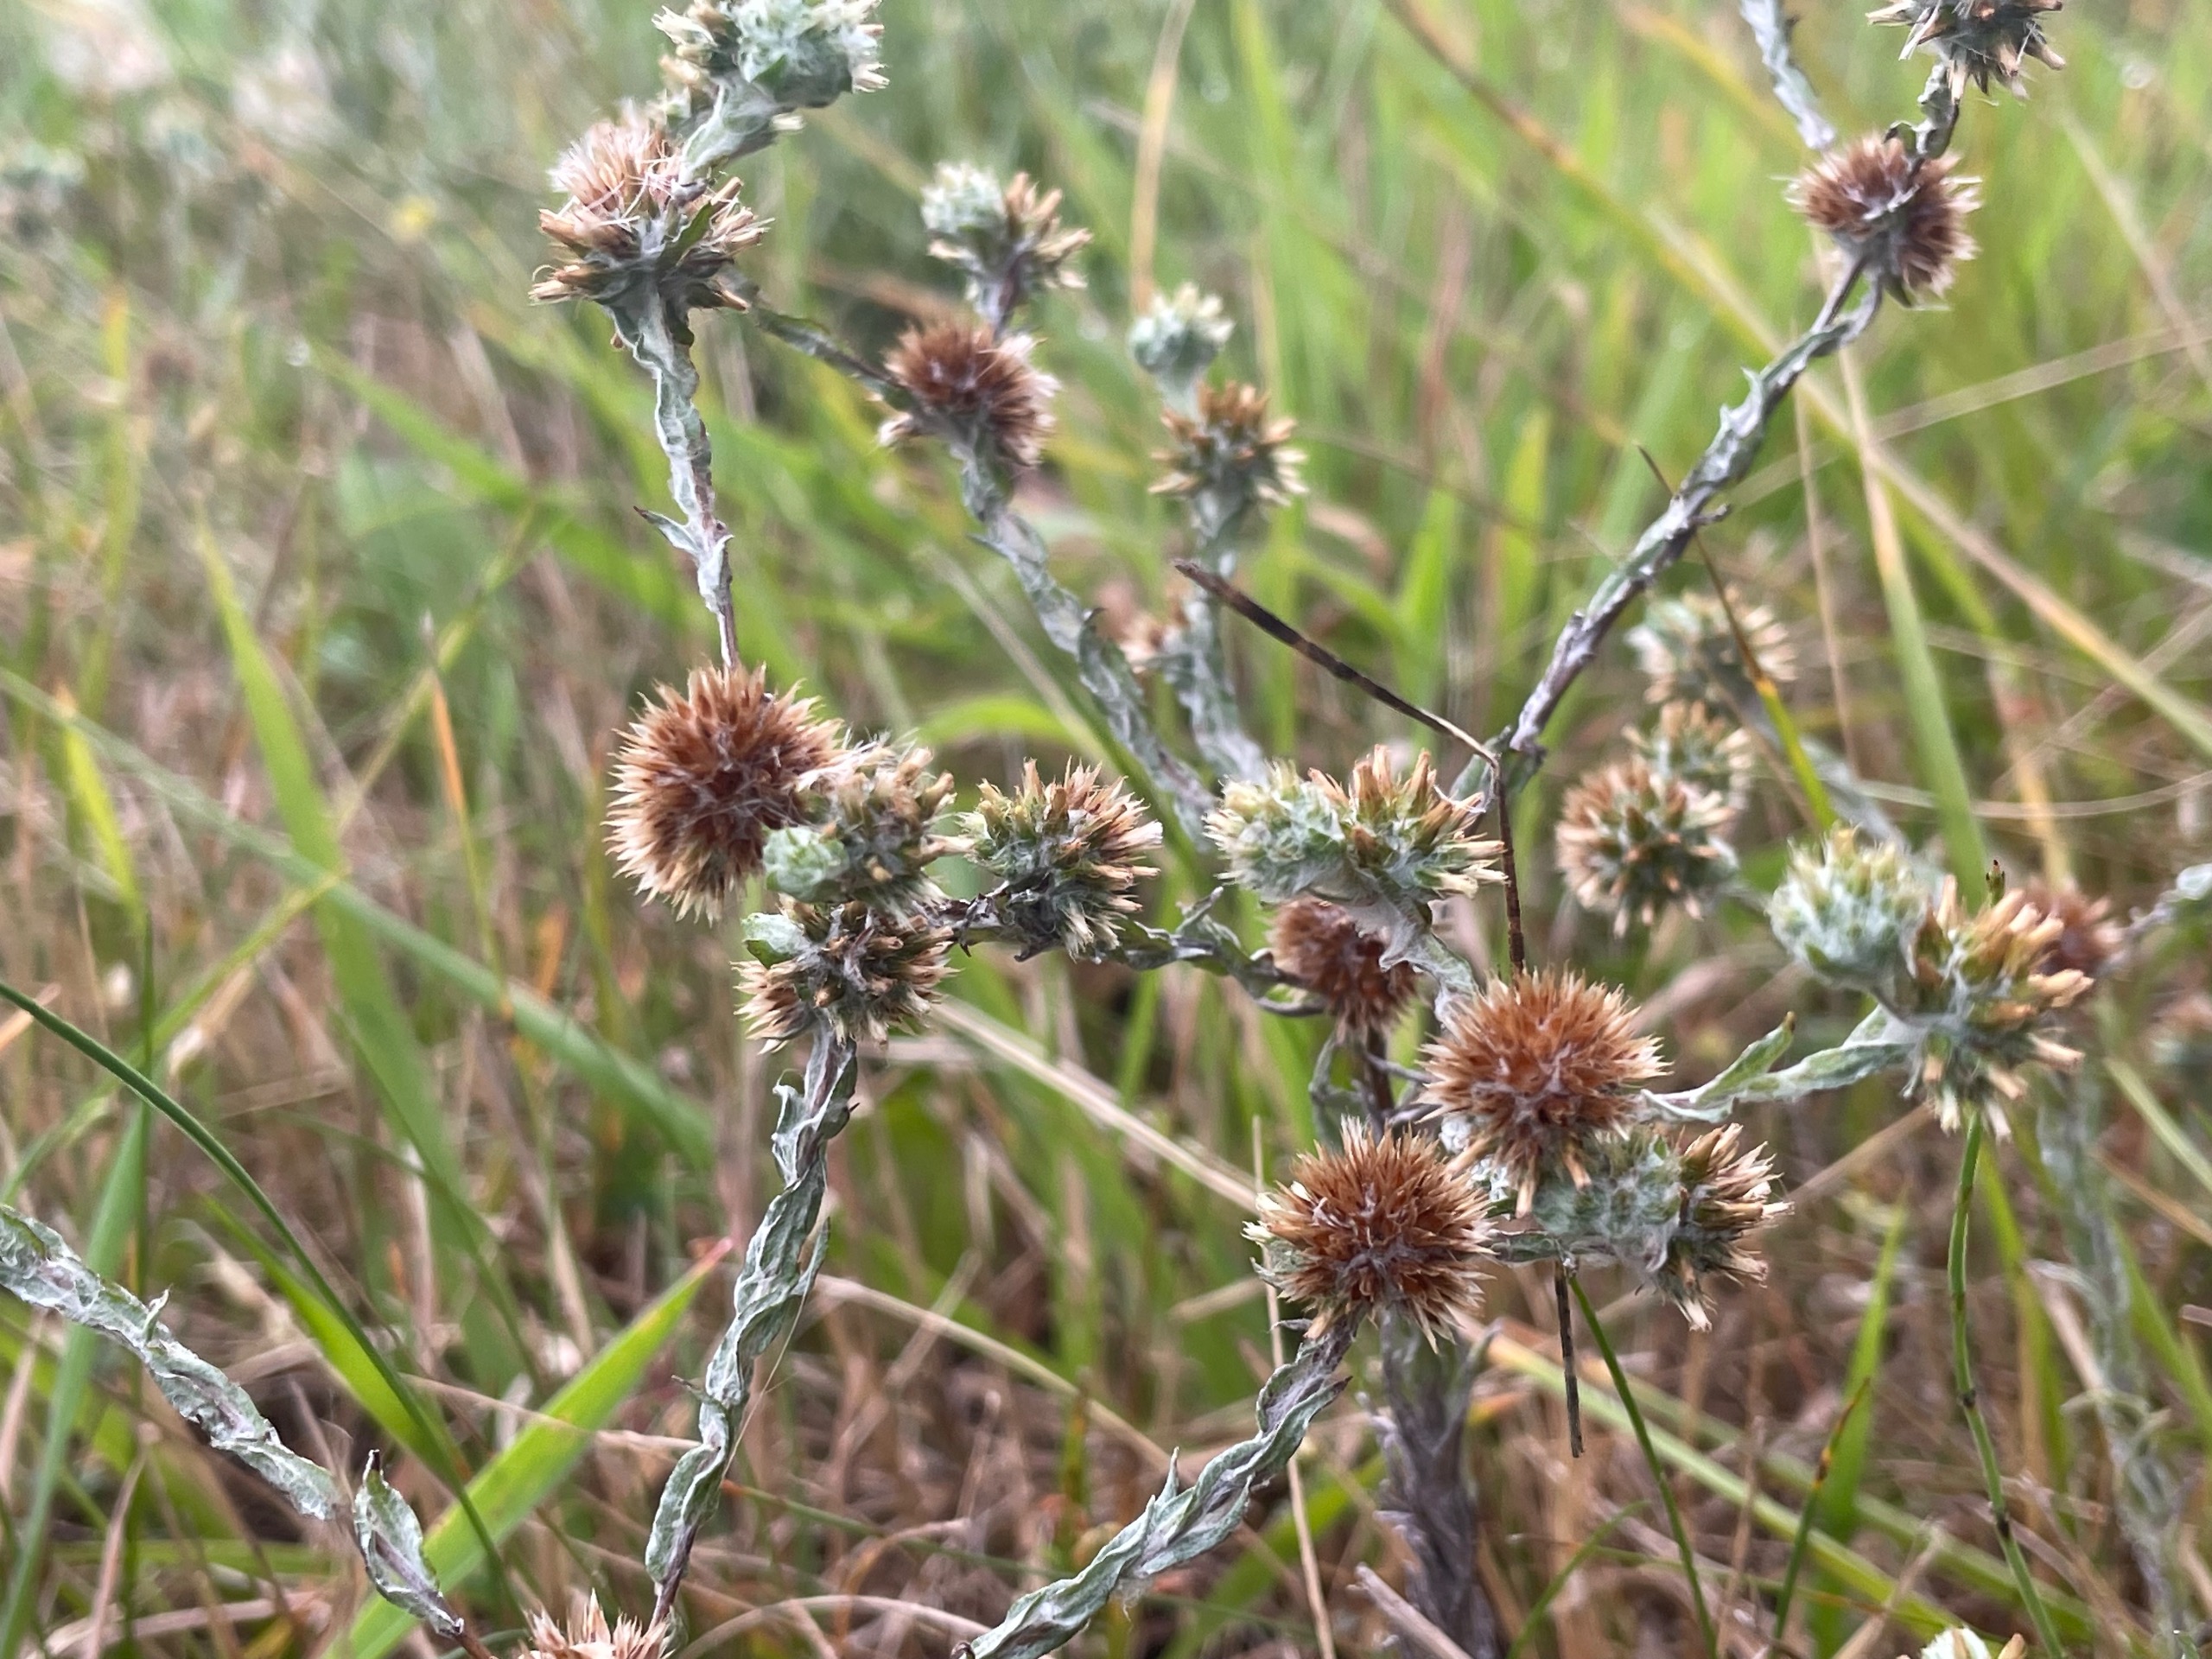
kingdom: Plantae
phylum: Tracheophyta
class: Magnoliopsida
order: Asterales
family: Asteraceae
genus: Filago
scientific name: Filago germanica
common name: Kugle-museurt
